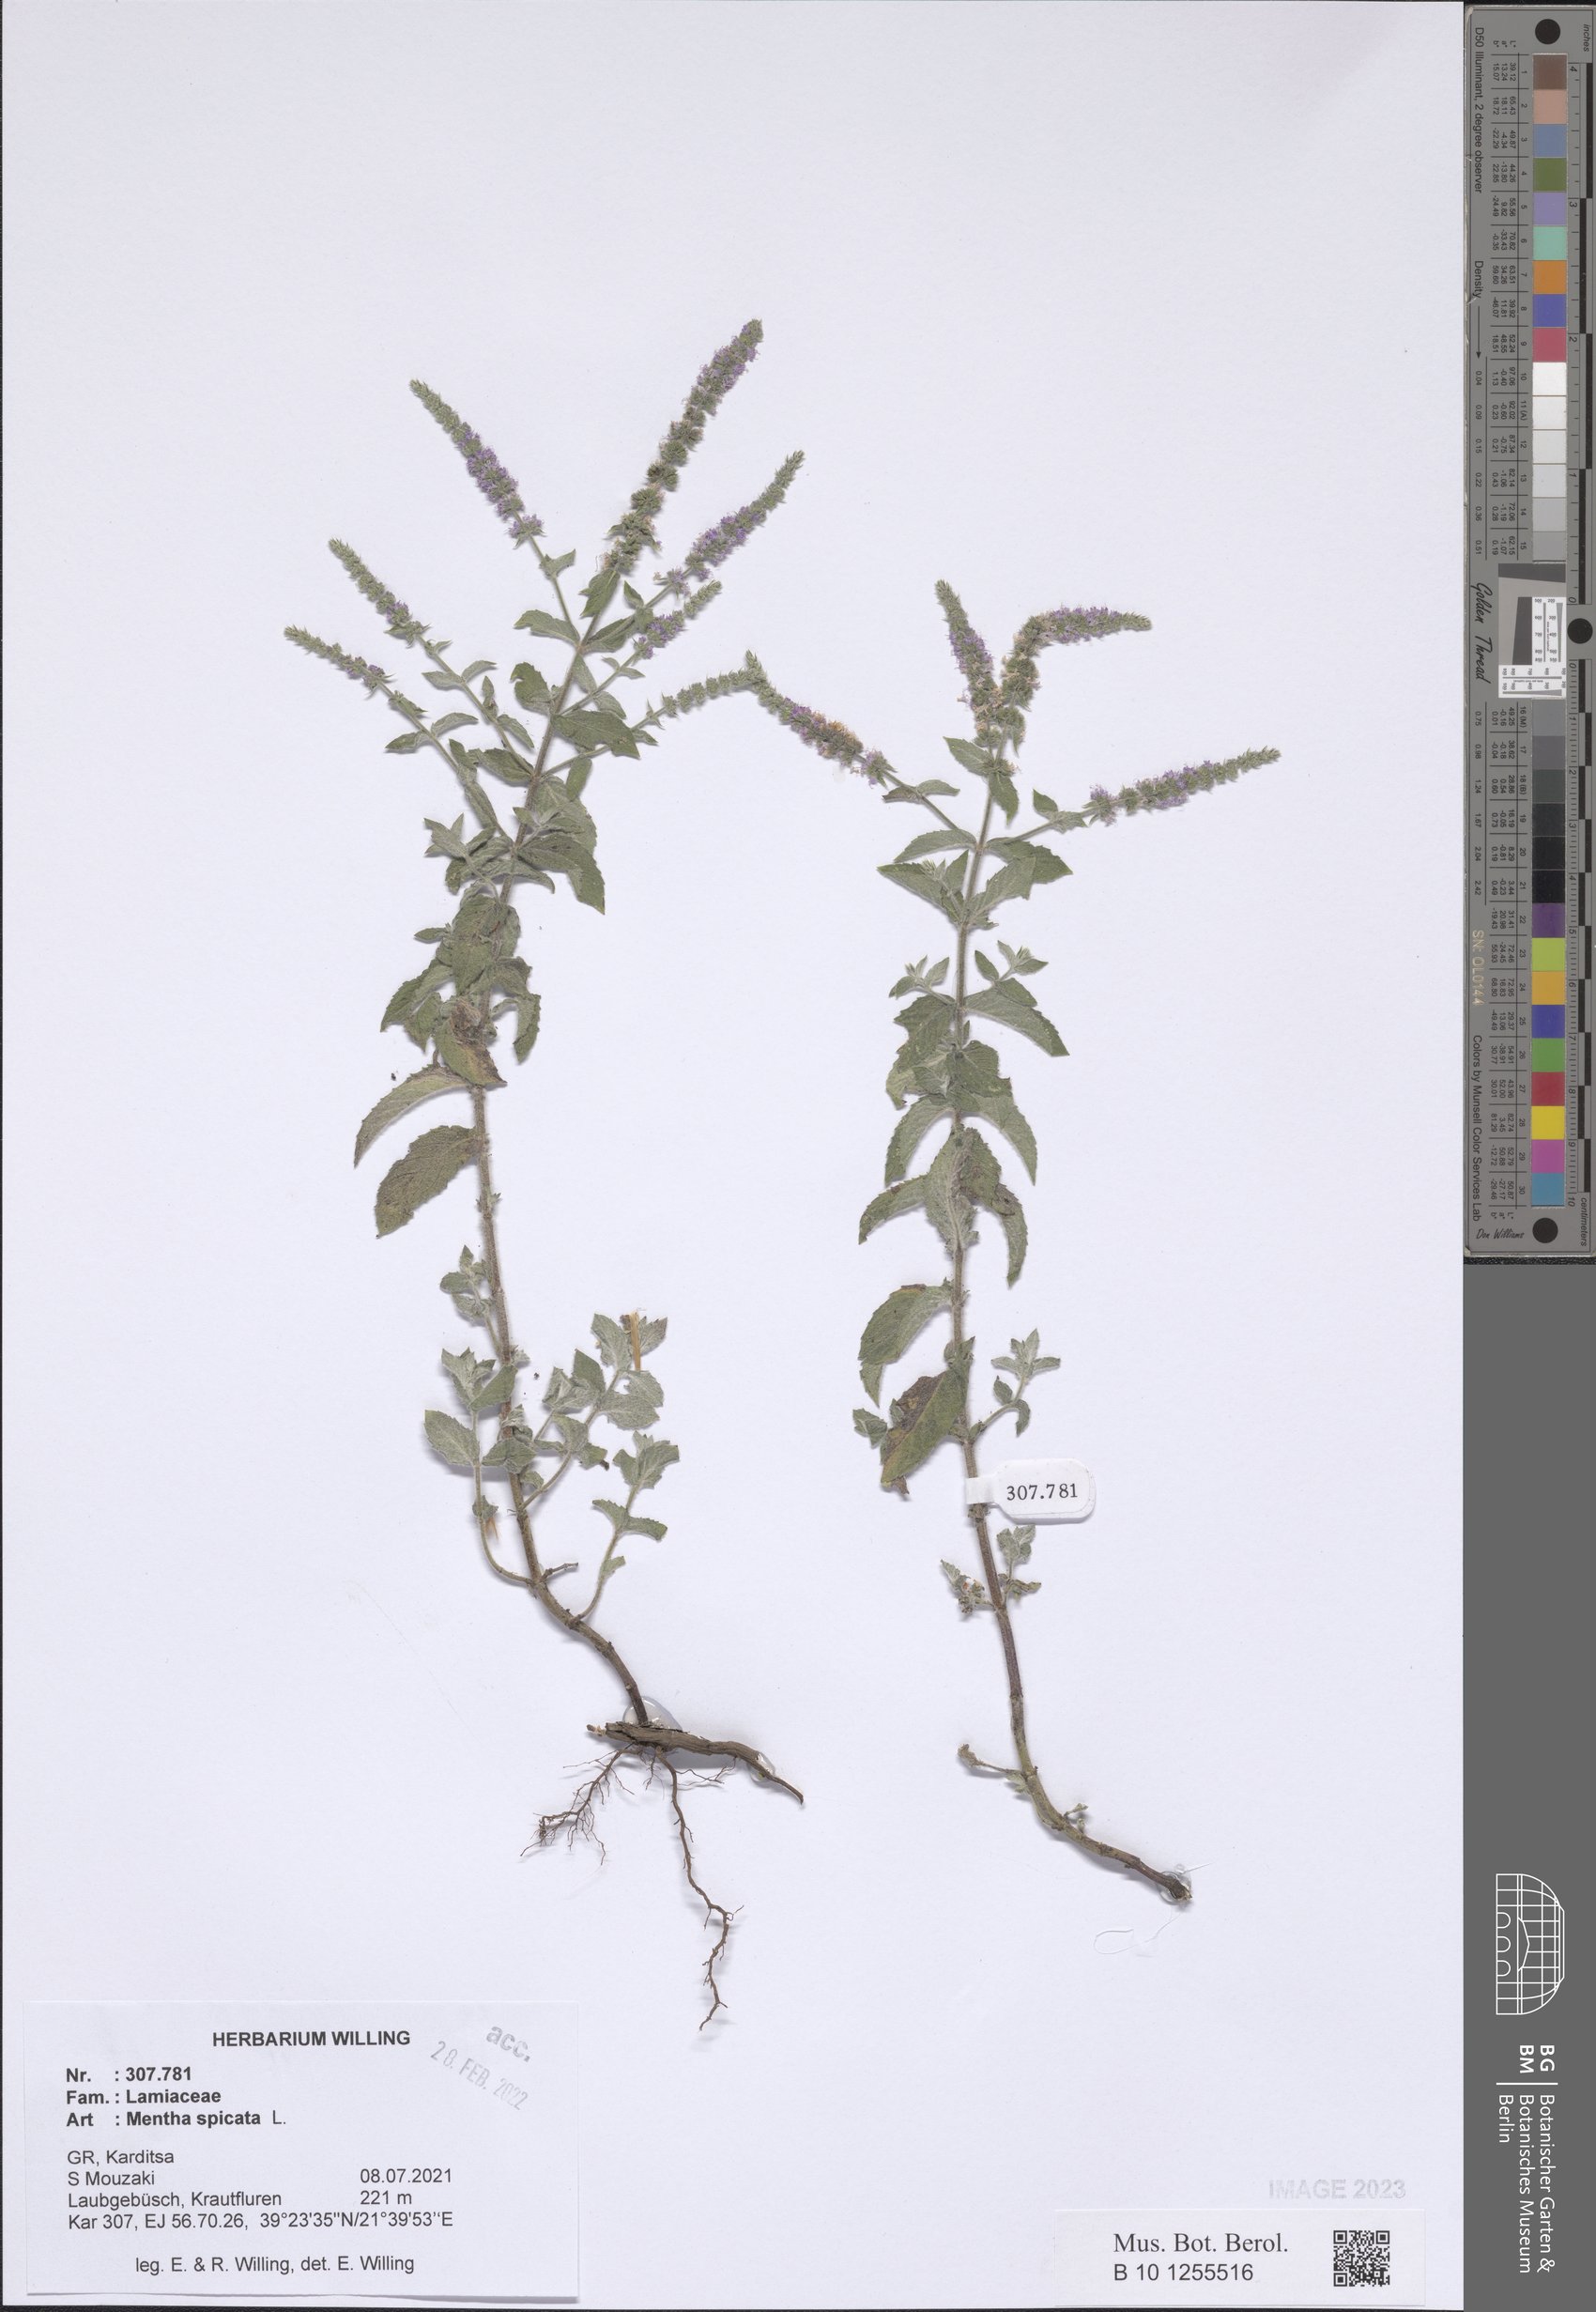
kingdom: Plantae
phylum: Tracheophyta
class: Magnoliopsida
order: Lamiales
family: Lamiaceae
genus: Mentha
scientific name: Mentha spicata
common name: Spearmint
